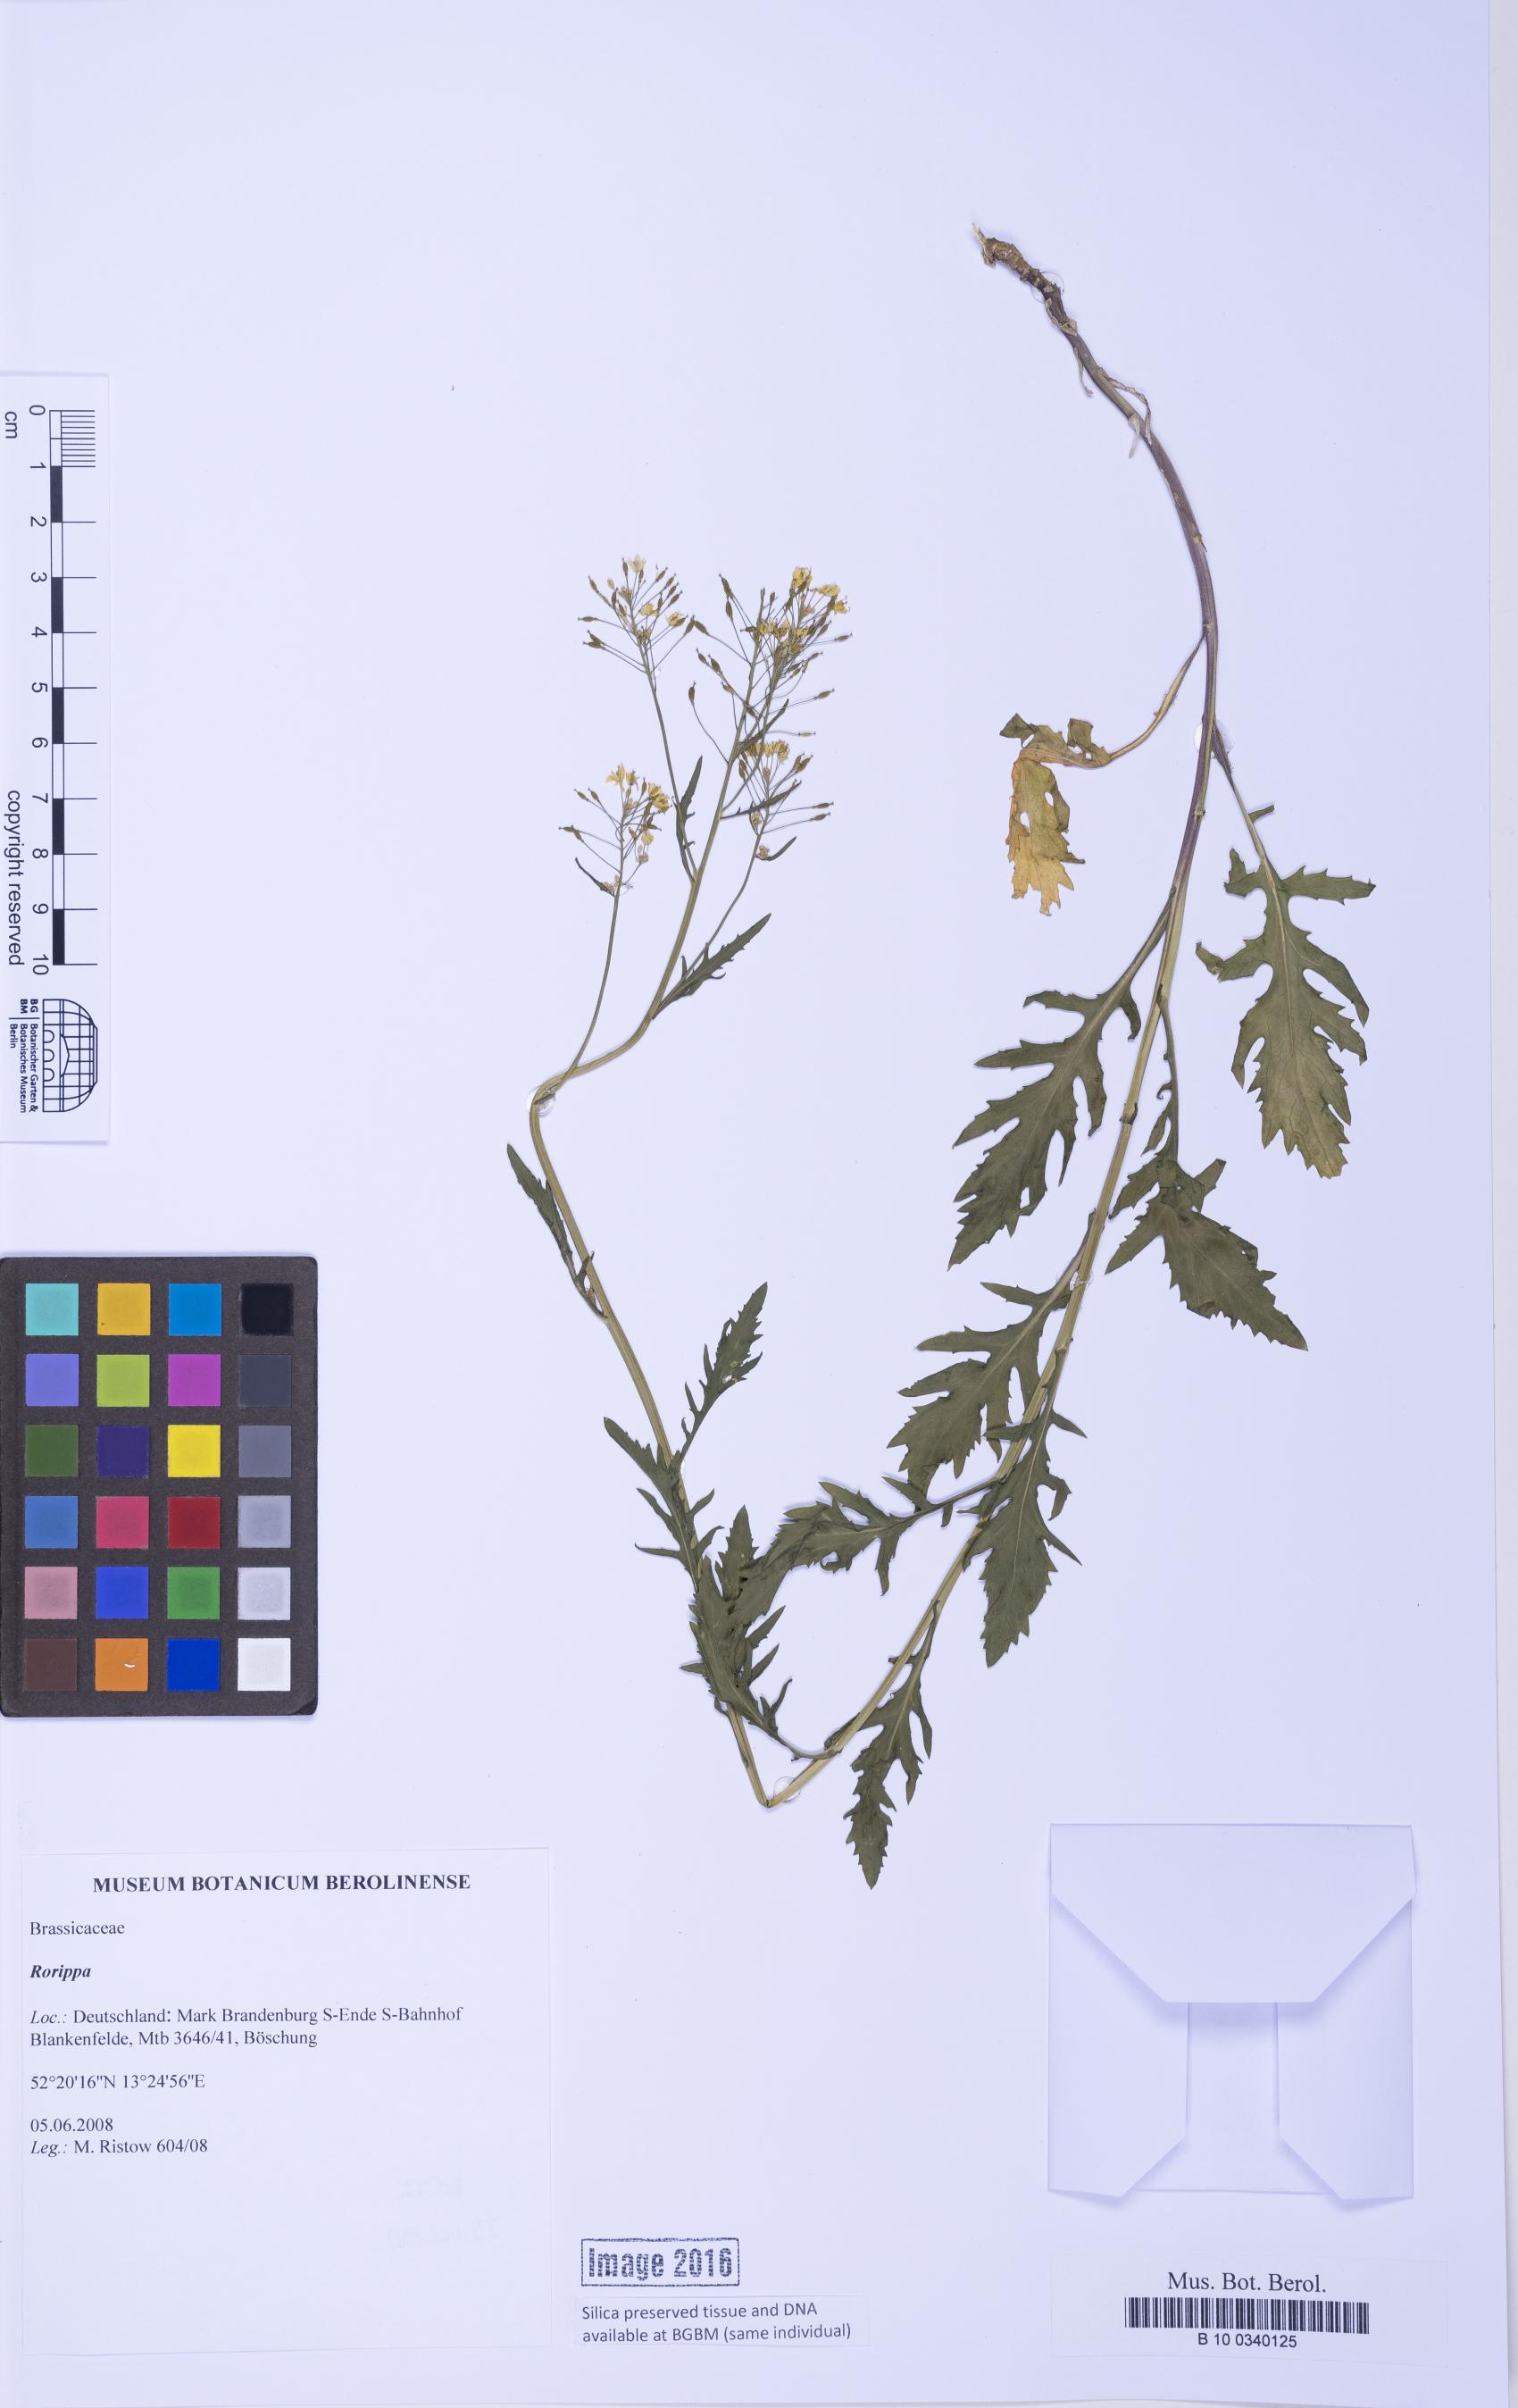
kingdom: Plantae
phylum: Tracheophyta
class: Magnoliopsida
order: Brassicales
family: Brassicaceae
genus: Rorippa
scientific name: Rorippa
